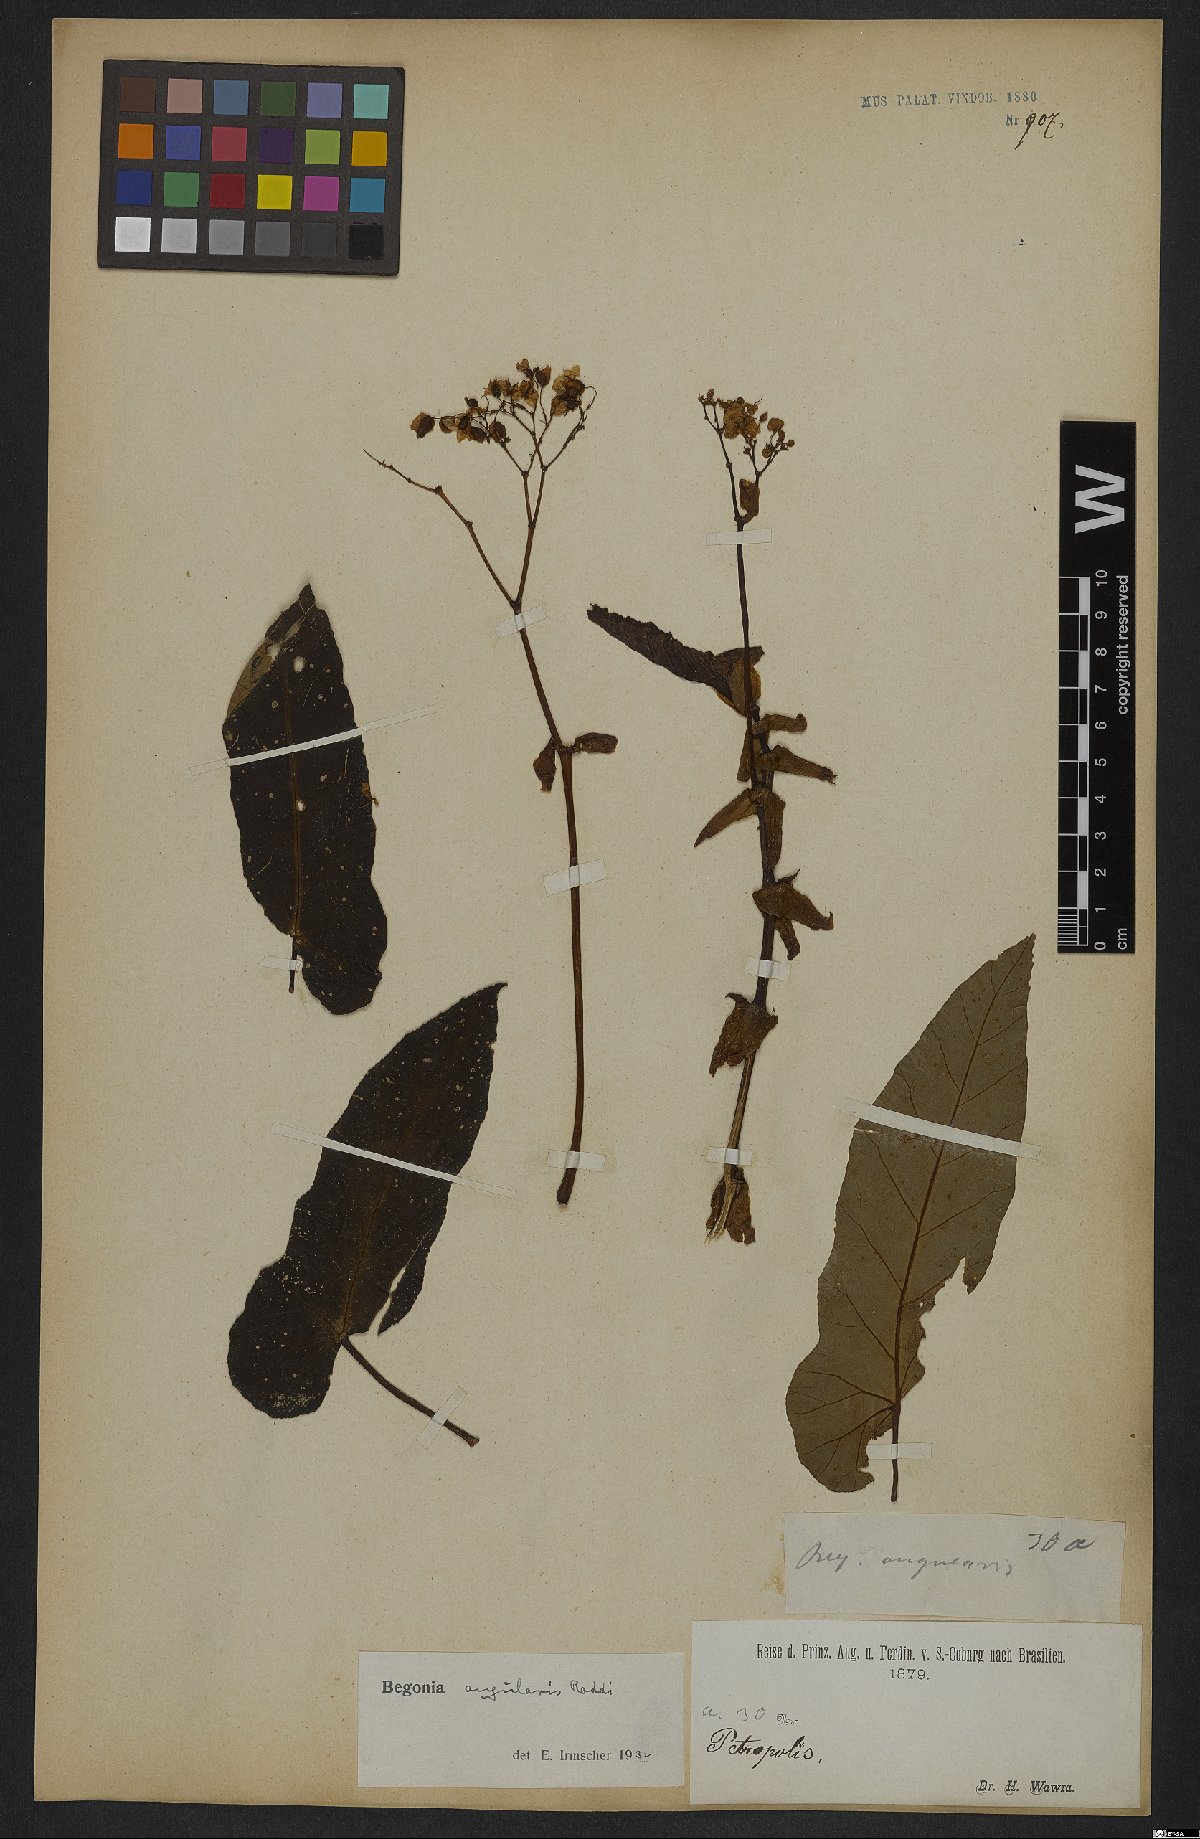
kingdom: Plantae
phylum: Tracheophyta
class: Magnoliopsida
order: Cucurbitales
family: Begoniaceae
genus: Begonia
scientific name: Begonia angularis
